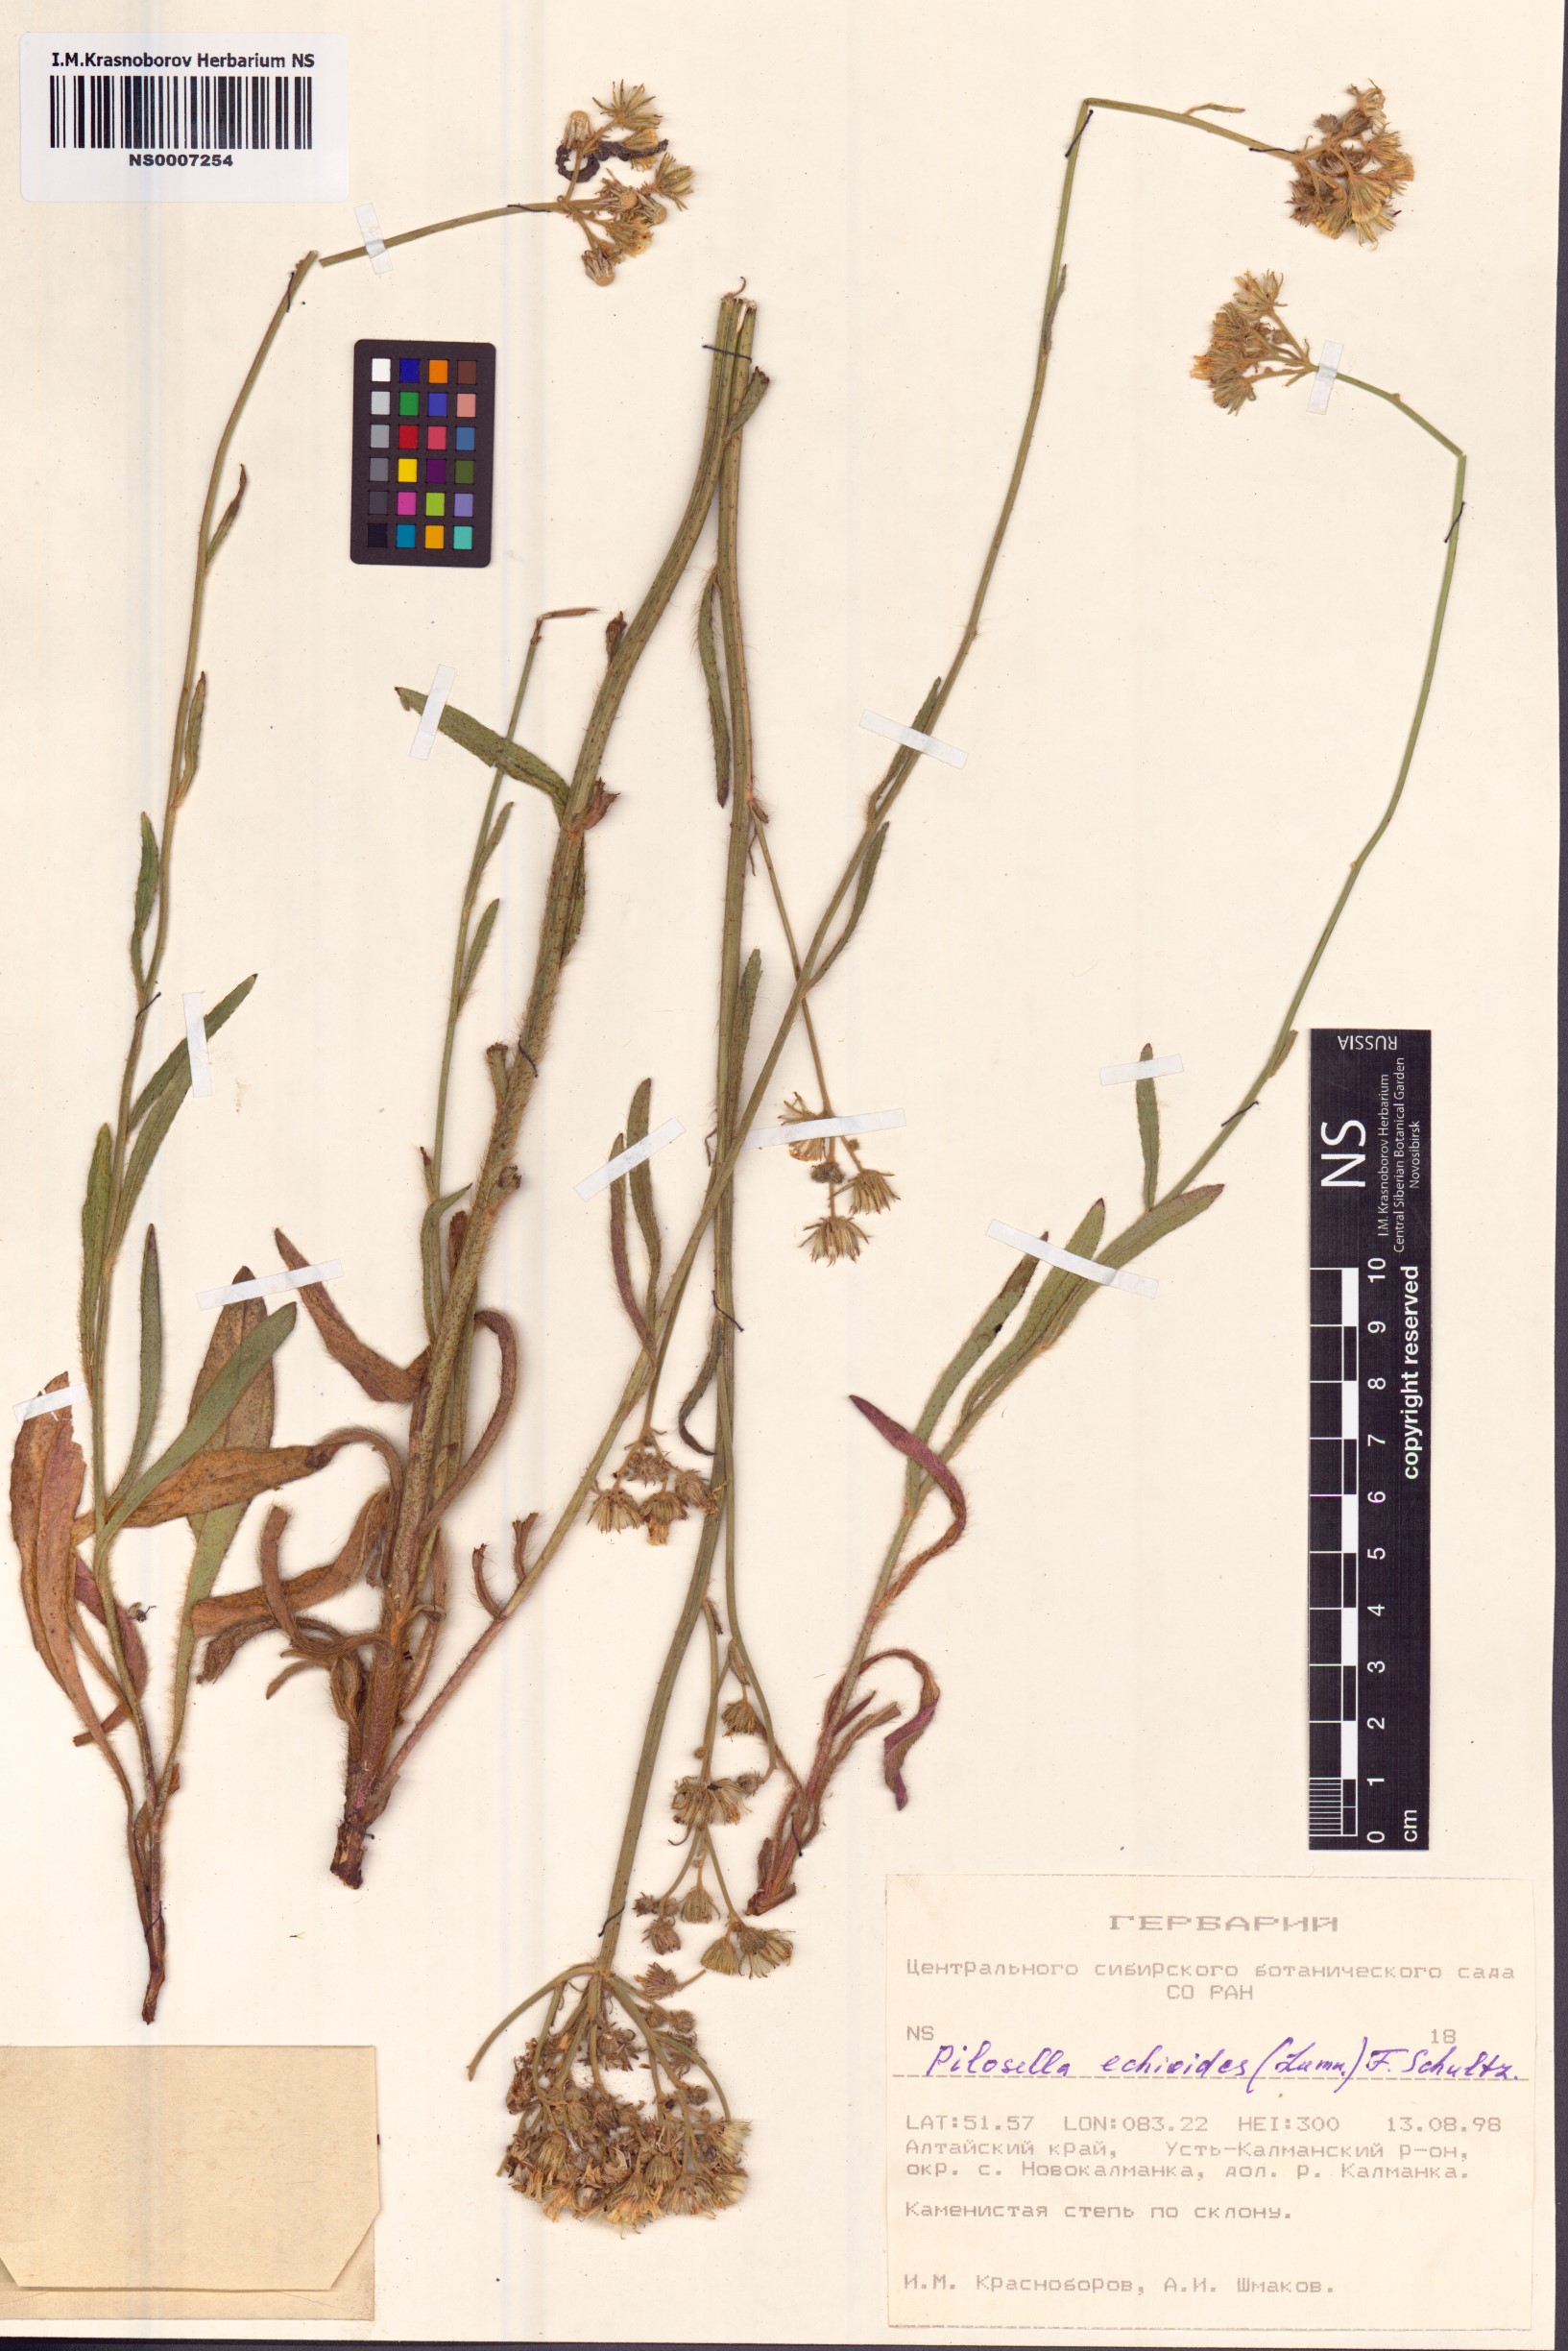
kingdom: Plantae
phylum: Tracheophyta
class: Magnoliopsida
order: Asterales
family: Asteraceae
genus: Pilosella
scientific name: Pilosella echioides
